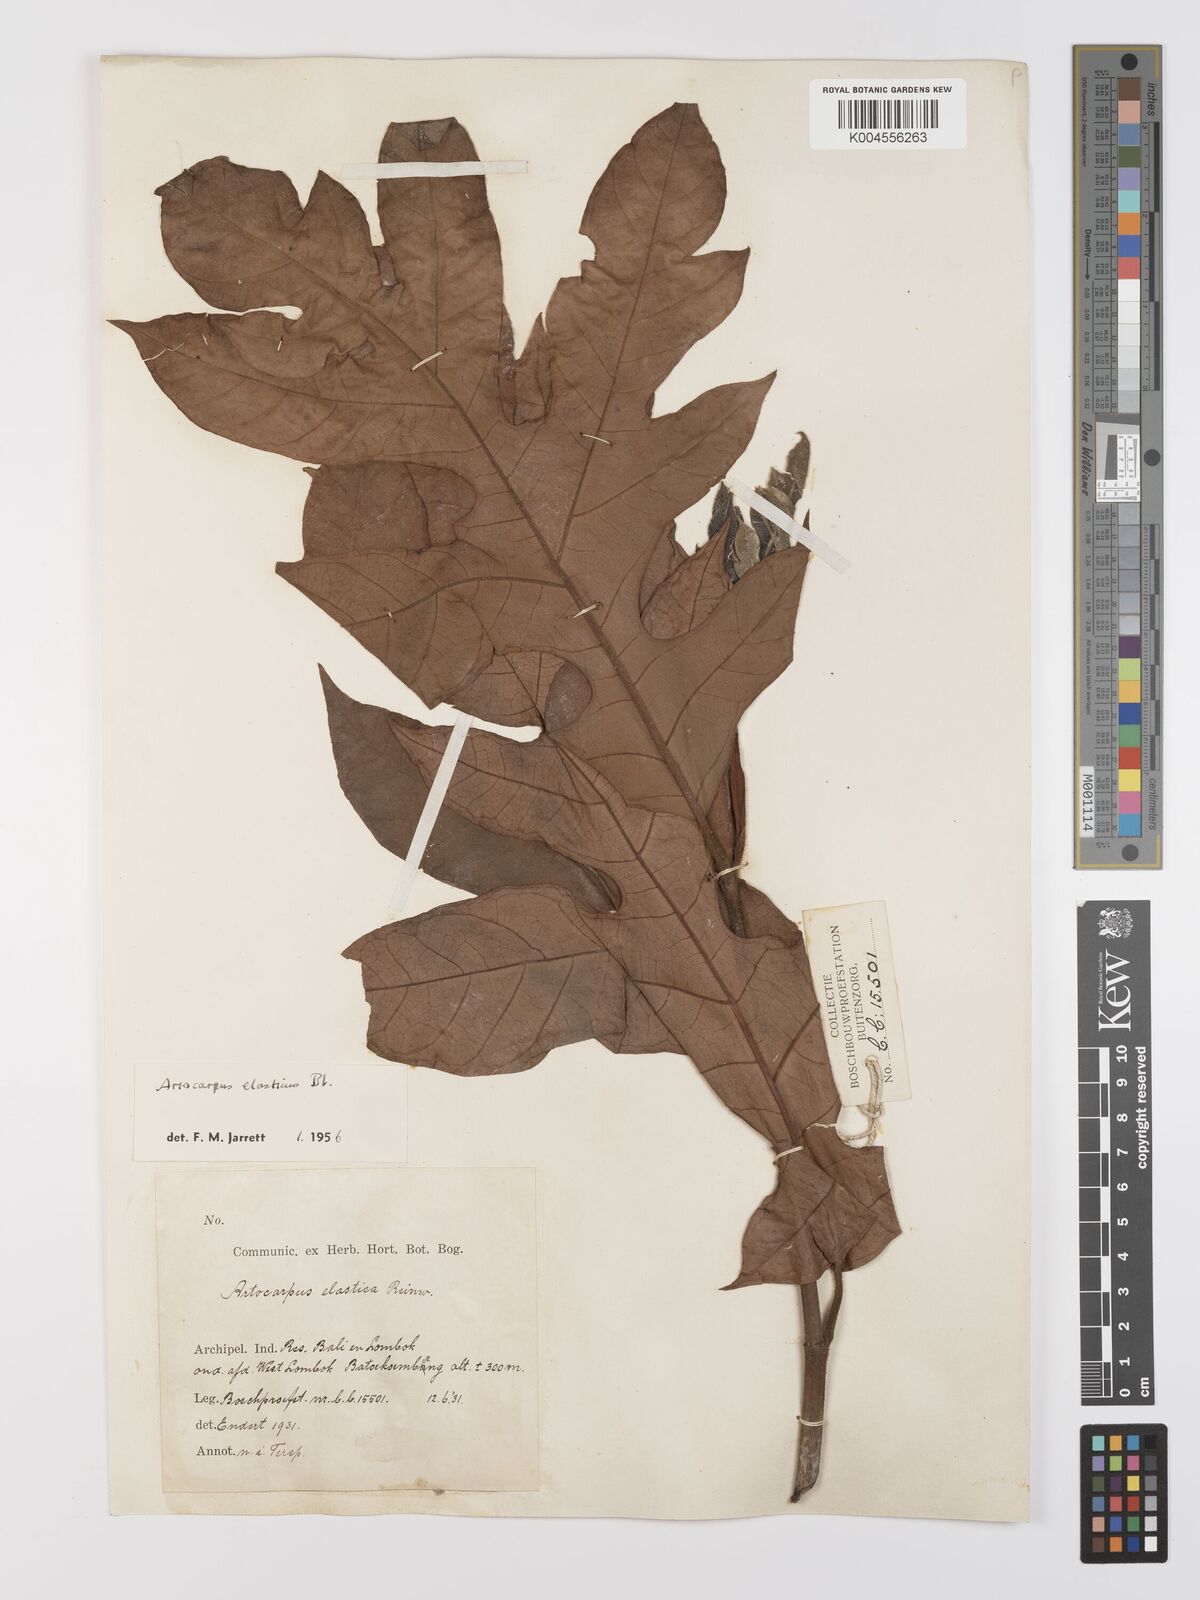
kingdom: Plantae
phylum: Tracheophyta
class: Magnoliopsida
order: Rosales
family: Moraceae
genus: Artocarpus
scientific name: Artocarpus elasticus
